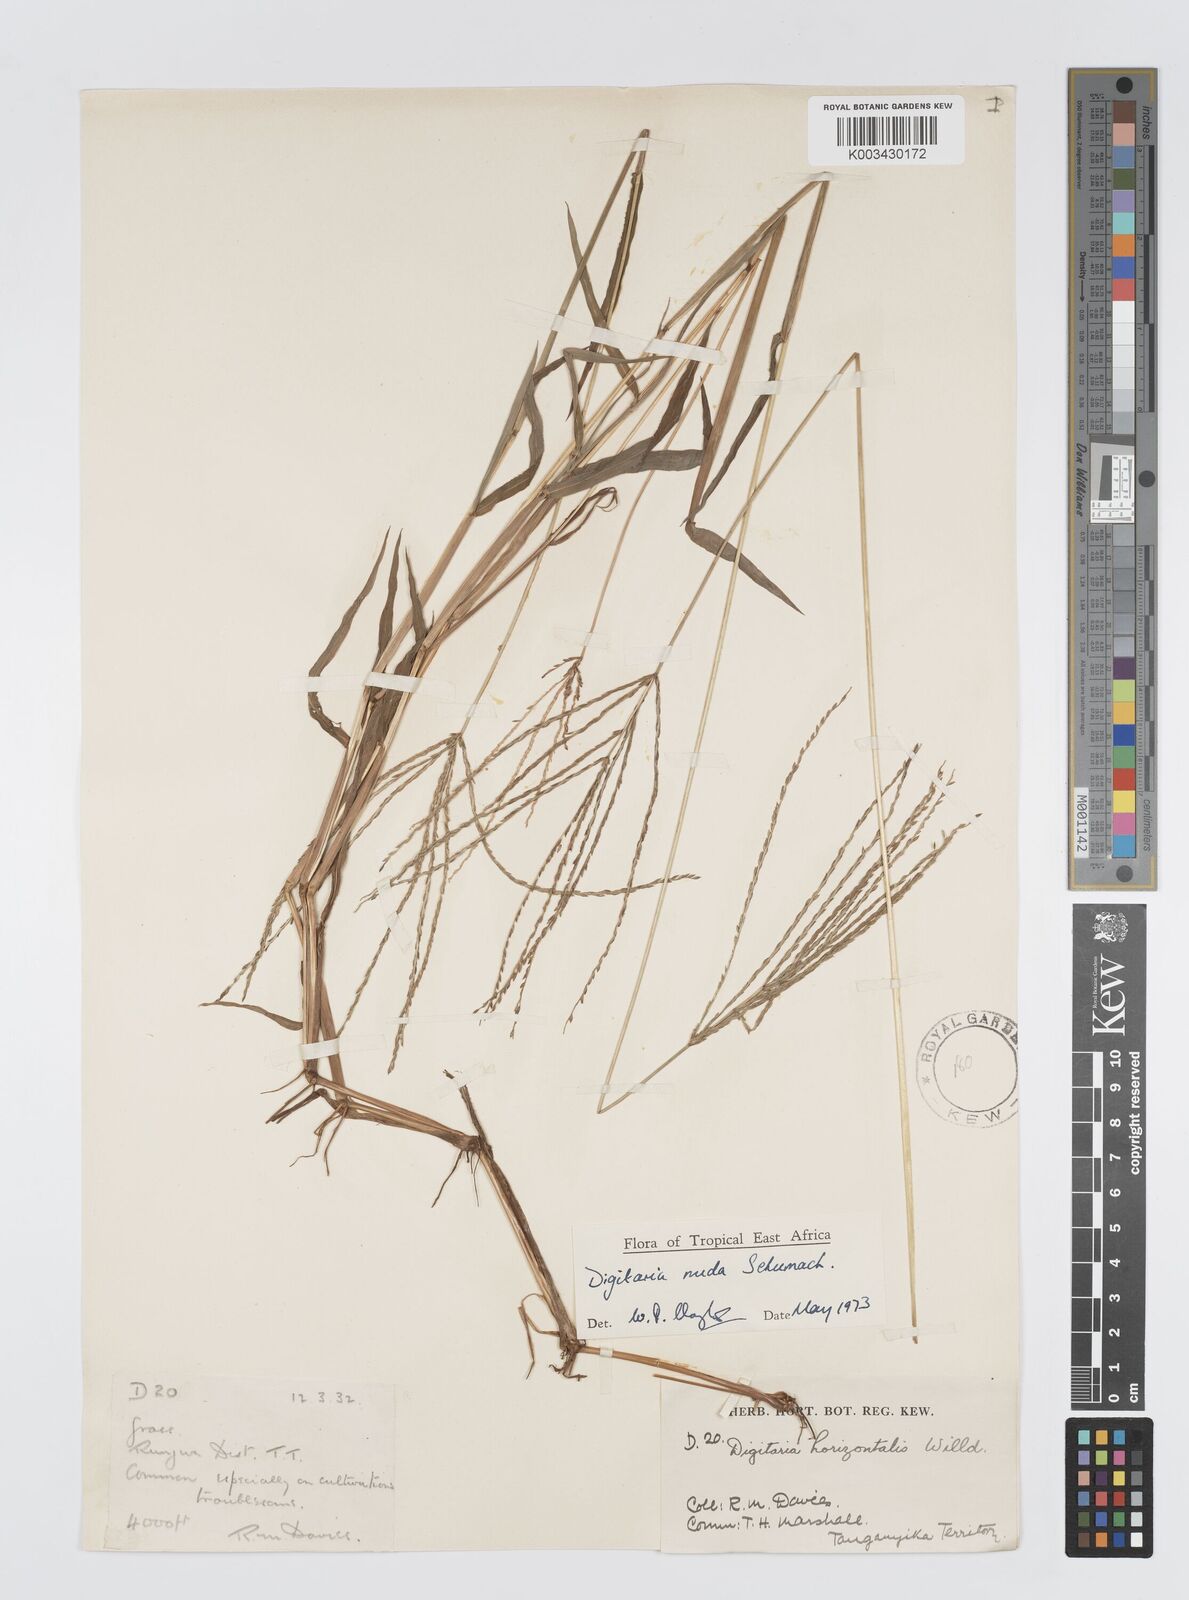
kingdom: Plantae
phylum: Tracheophyta
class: Liliopsida
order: Poales
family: Poaceae
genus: Digitaria
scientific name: Digitaria nuda
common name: Naked crabgrass
